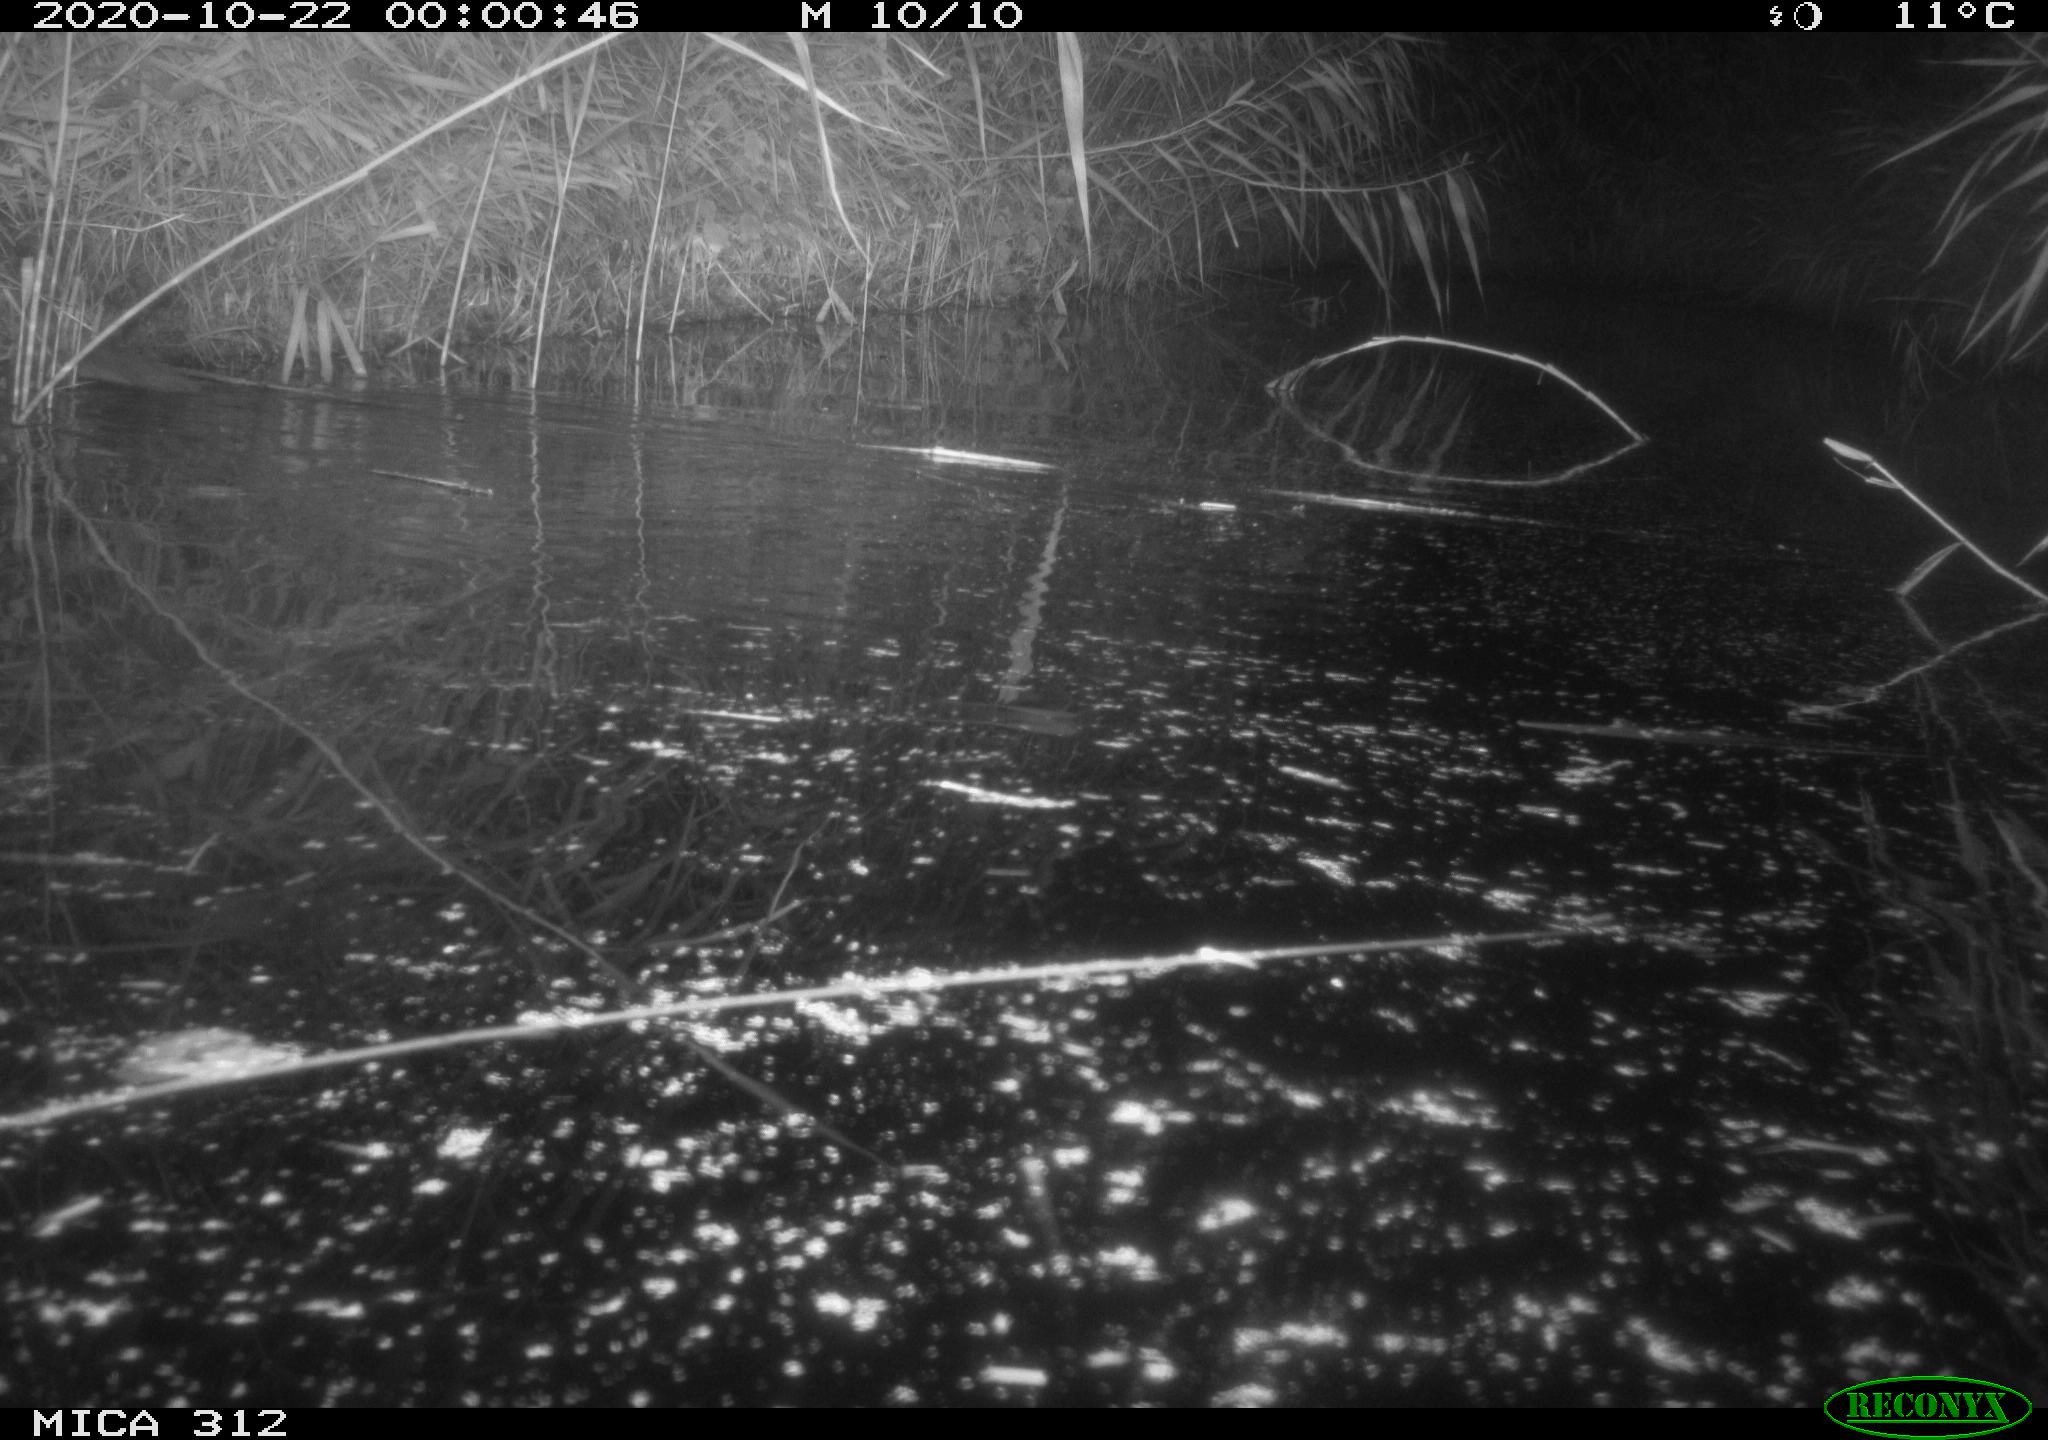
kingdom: Animalia
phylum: Chordata
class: Mammalia
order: Rodentia
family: Muridae
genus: Rattus
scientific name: Rattus norvegicus
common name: Brown rat
